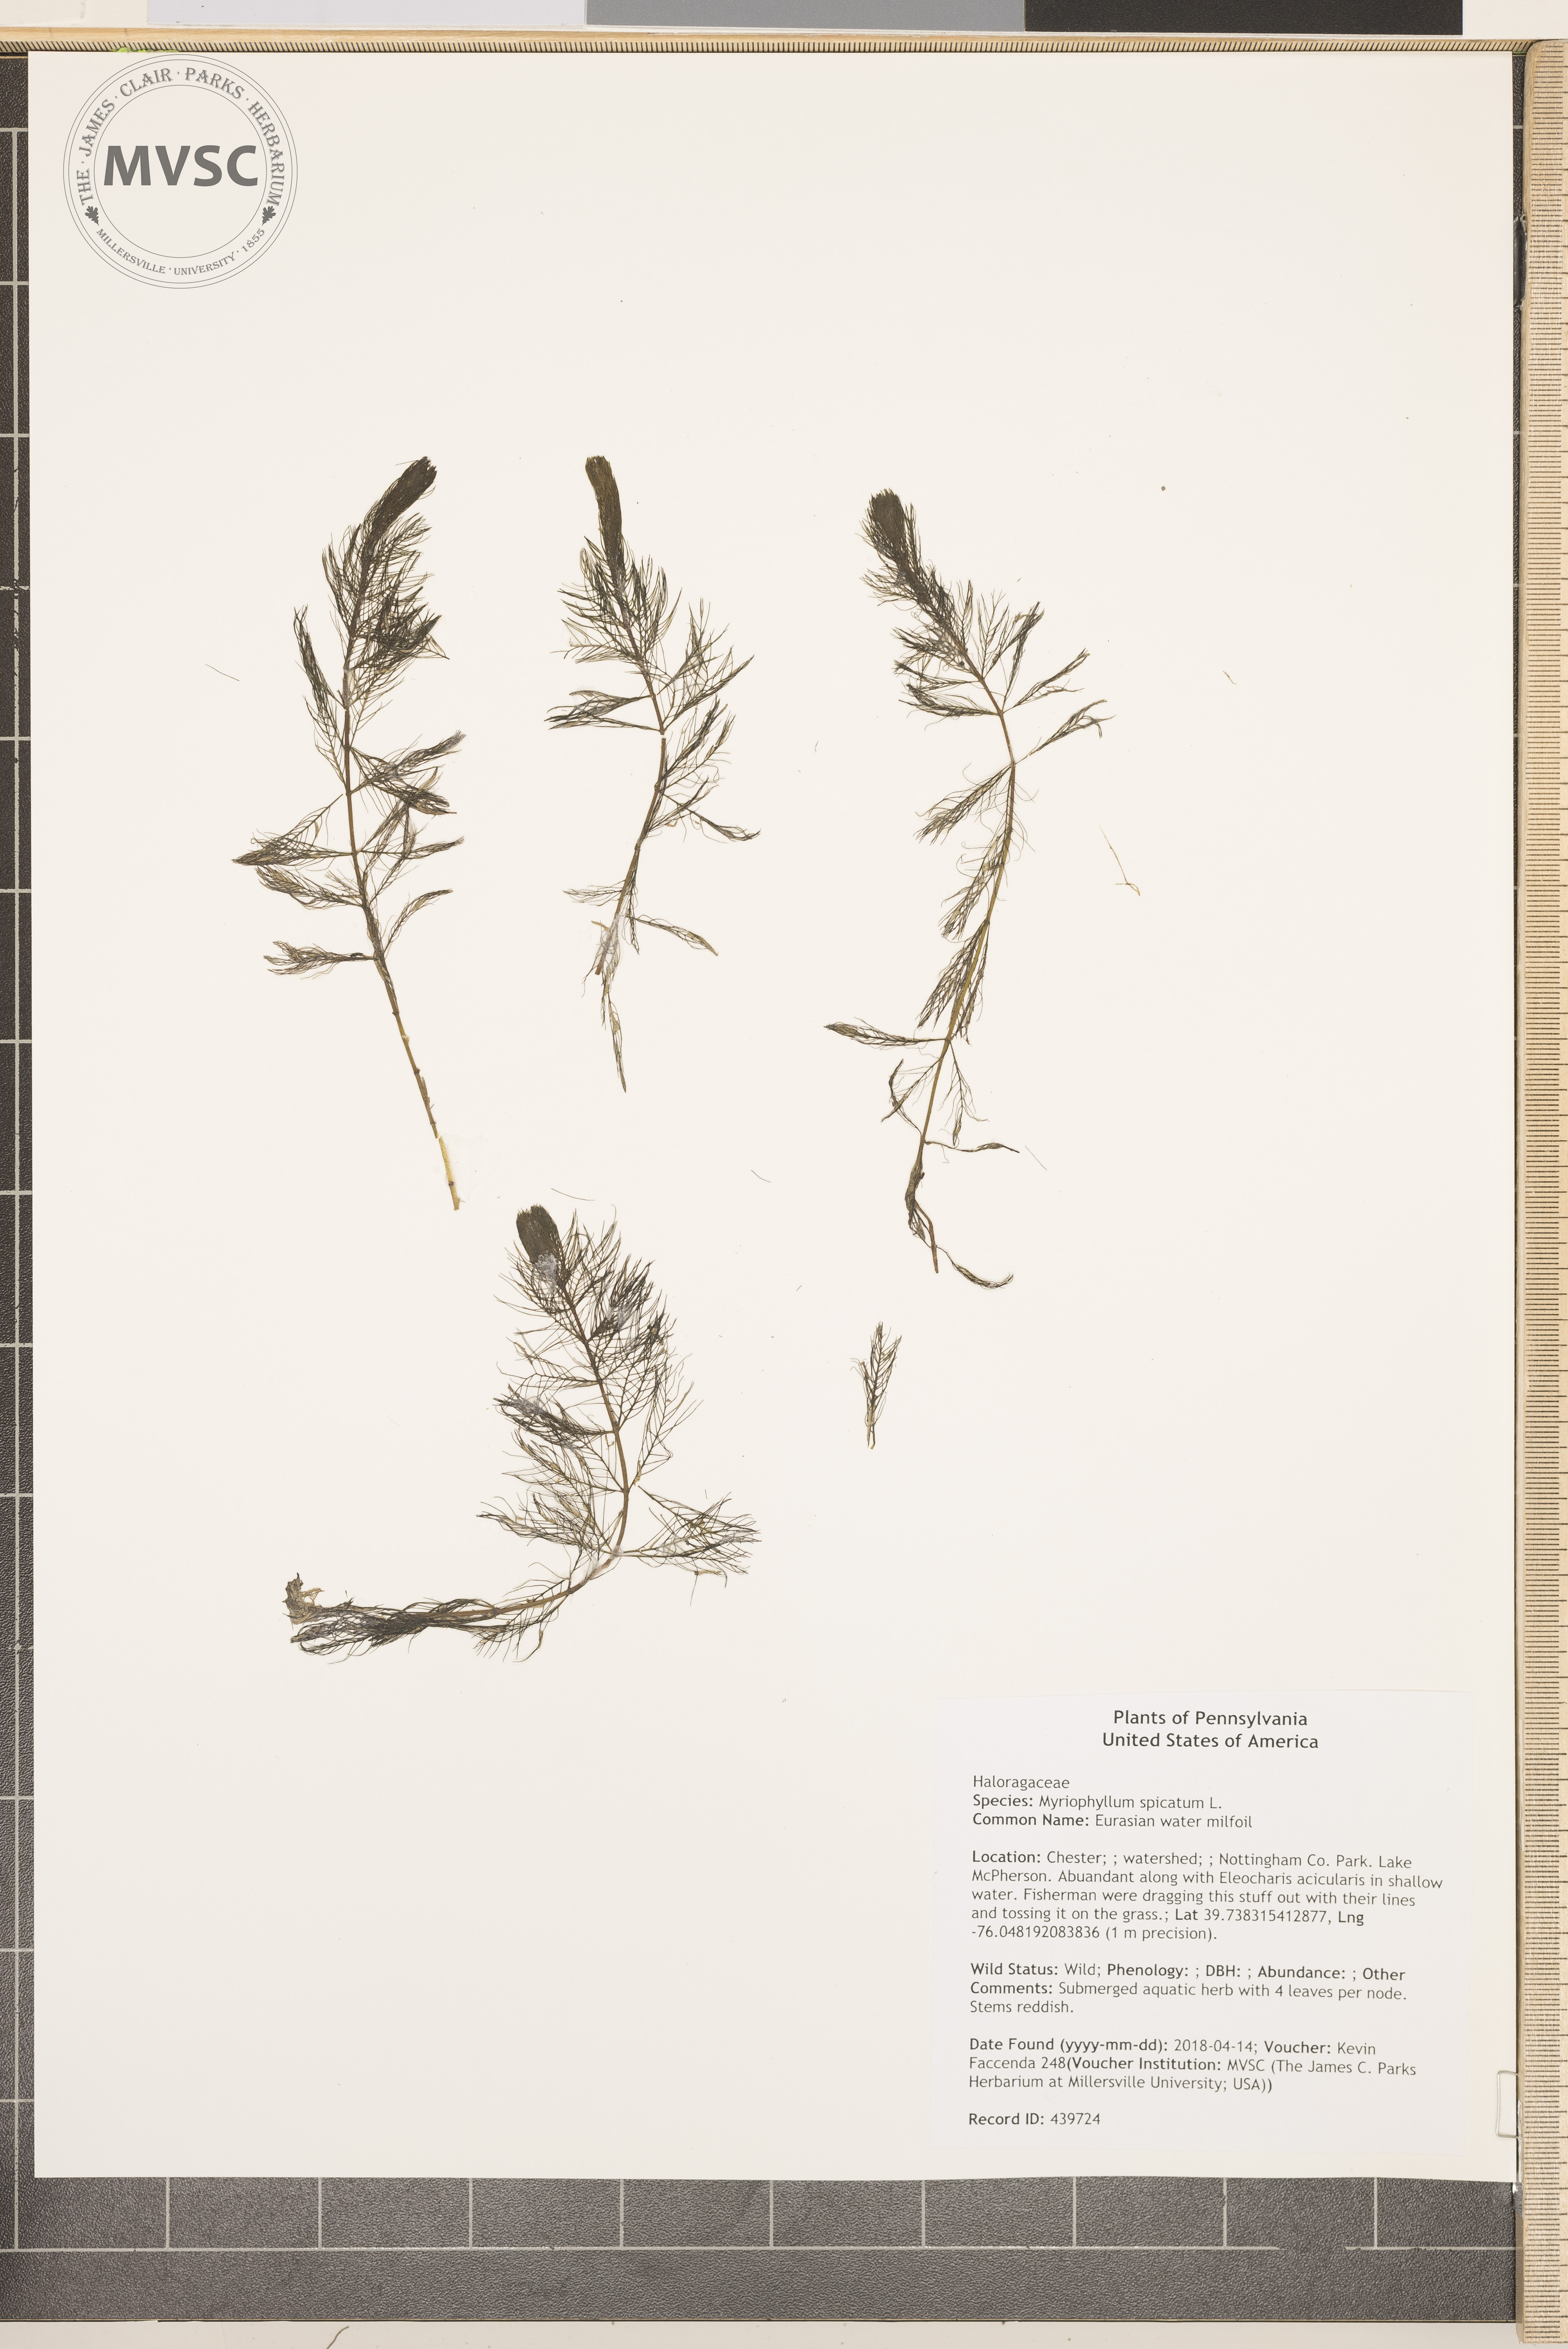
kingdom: Plantae
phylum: Tracheophyta
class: Magnoliopsida
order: Saxifragales
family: Haloragaceae
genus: Myriophyllum
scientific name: Myriophyllum spicatum
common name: Eurasian water milfoil
